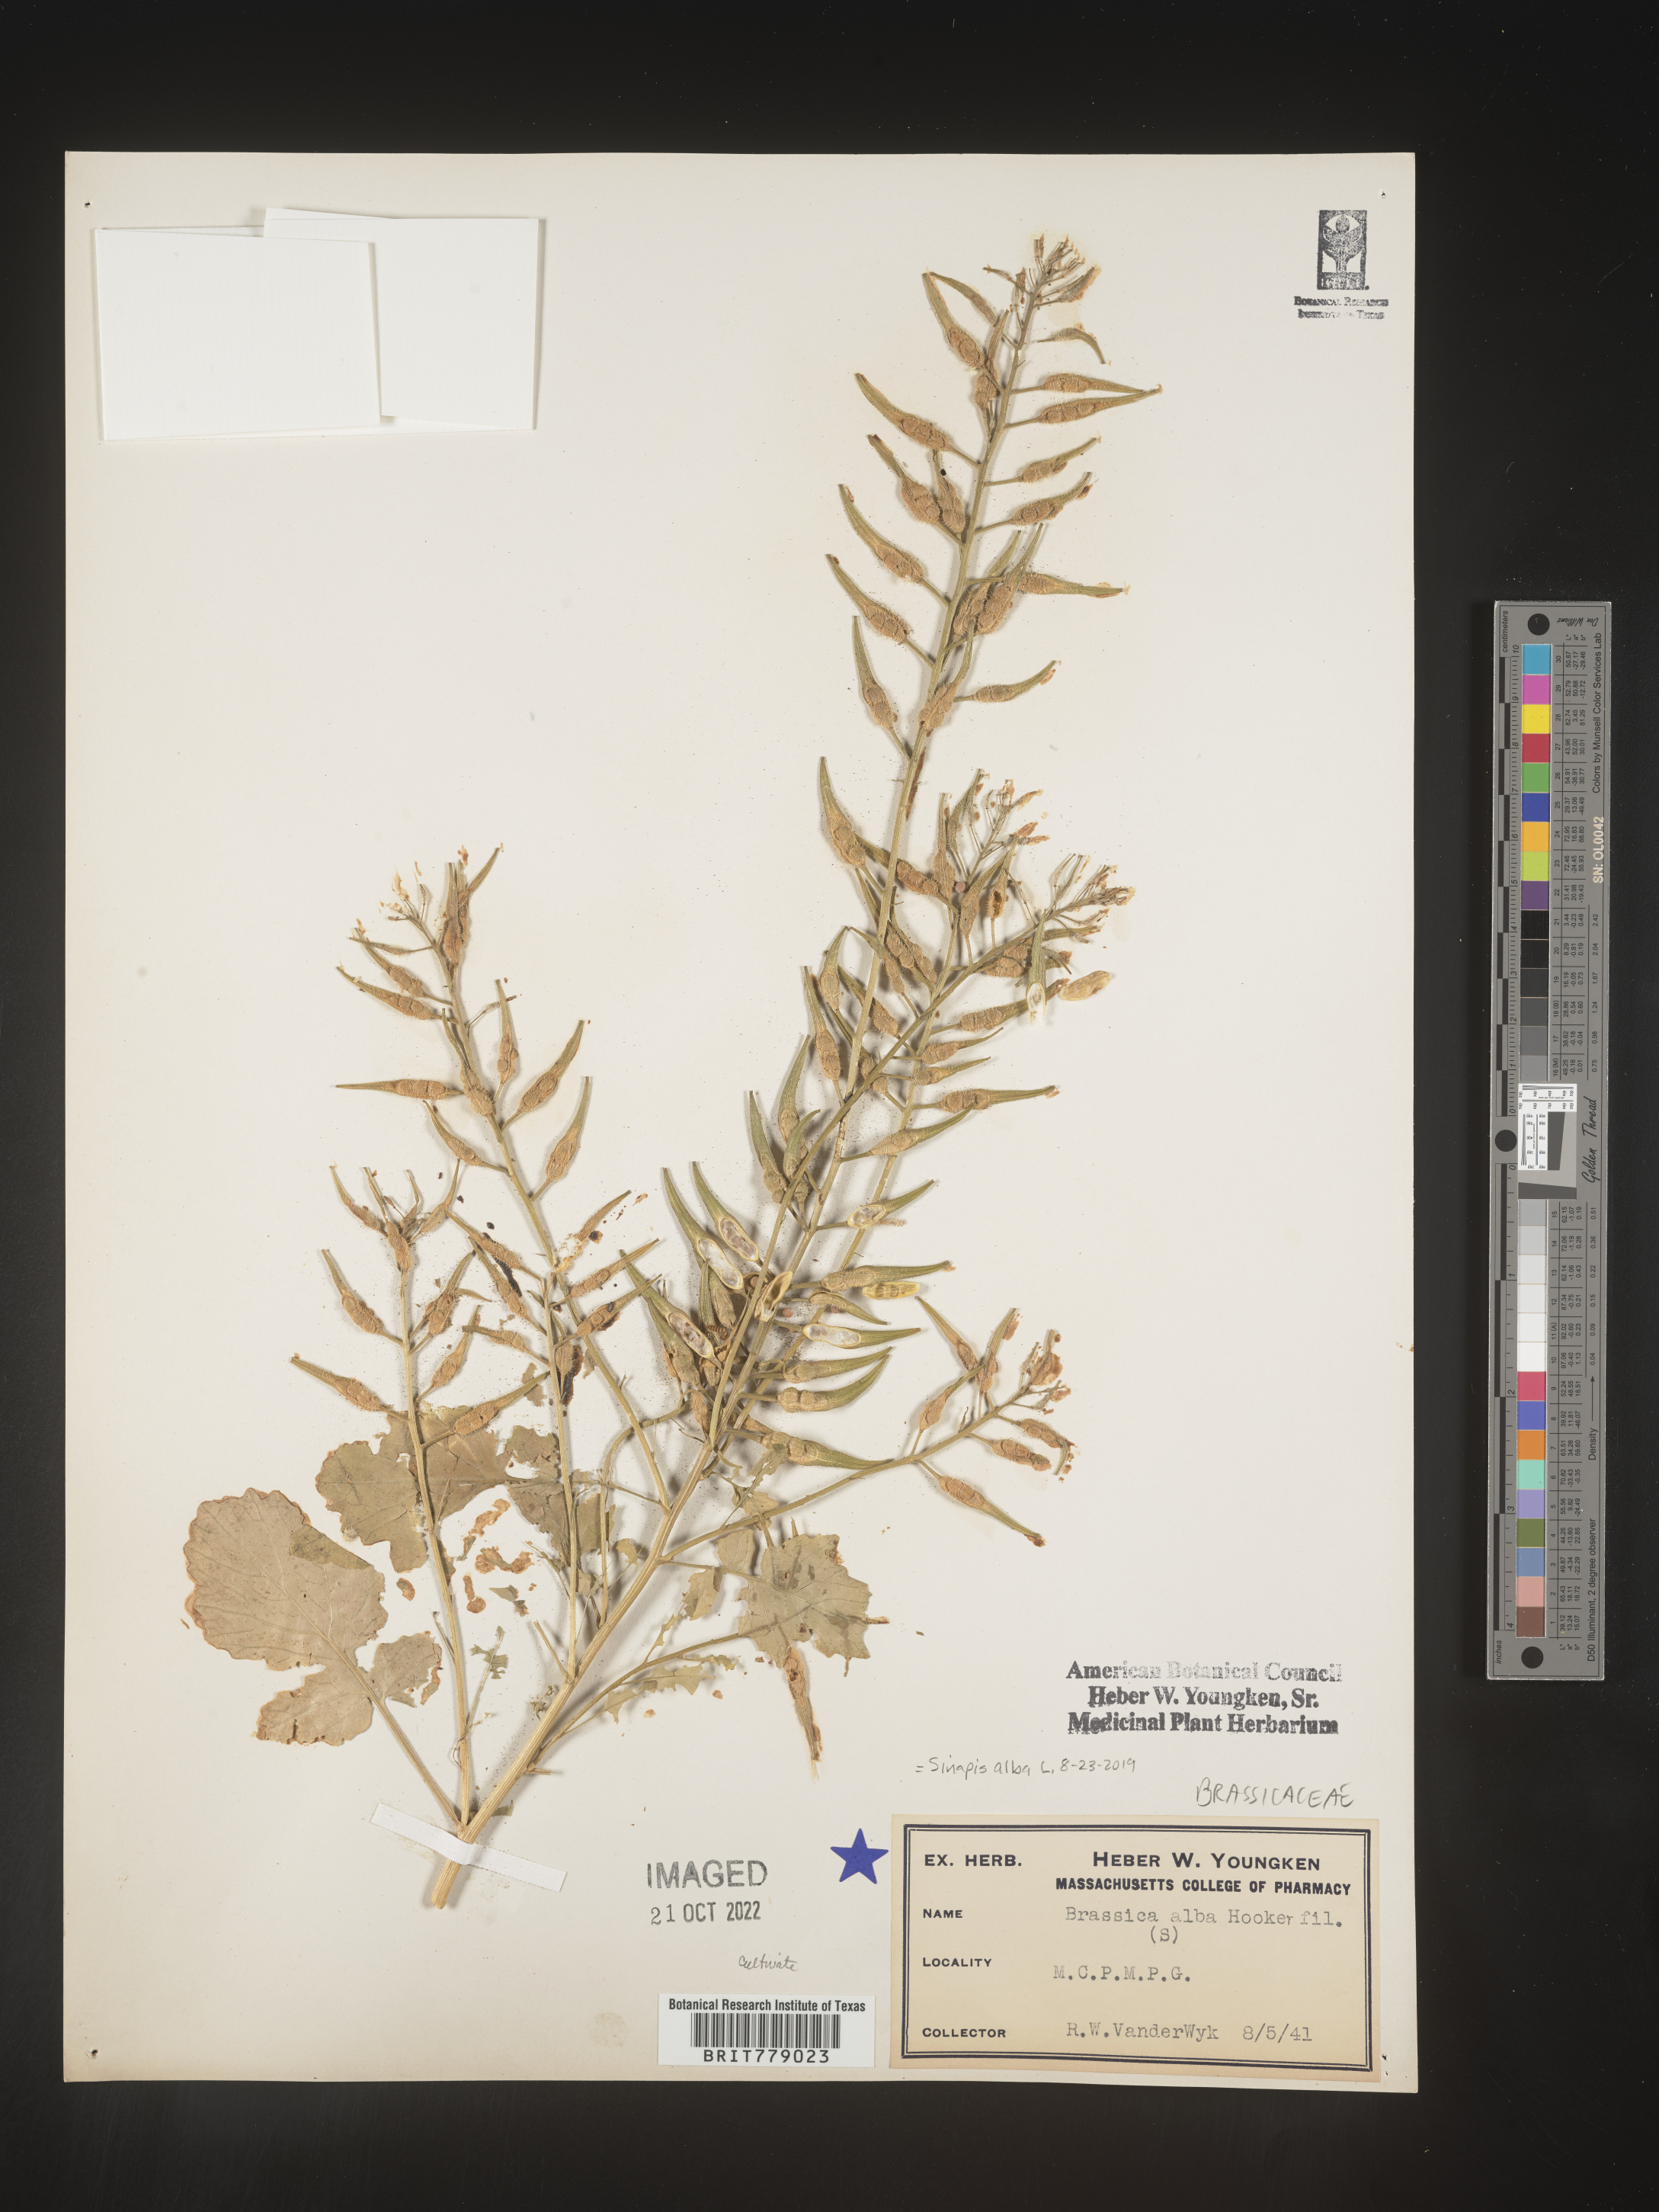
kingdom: Plantae
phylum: Tracheophyta
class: Magnoliopsida
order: Brassicales
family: Brassicaceae
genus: Sinapis
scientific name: Sinapis
